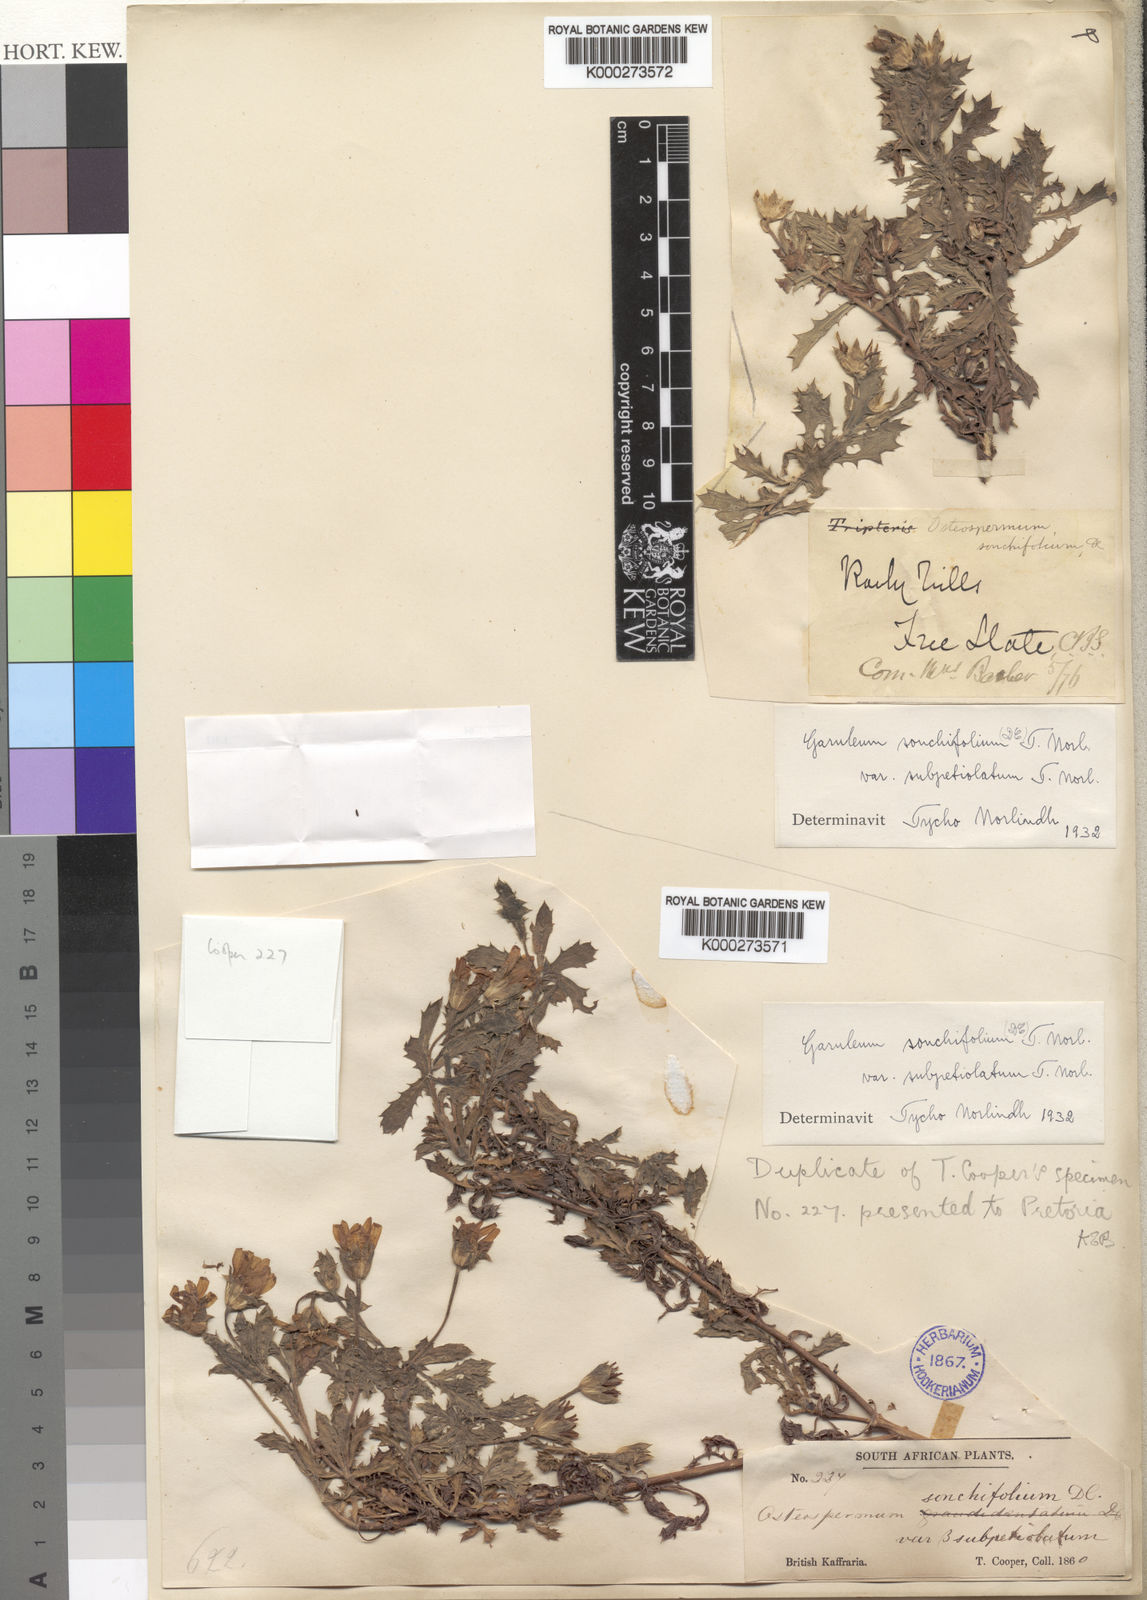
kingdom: Plantae
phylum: Tracheophyta
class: Magnoliopsida
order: Asterales
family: Asteraceae
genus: Garuleum
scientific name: Garuleum sonchifolium
